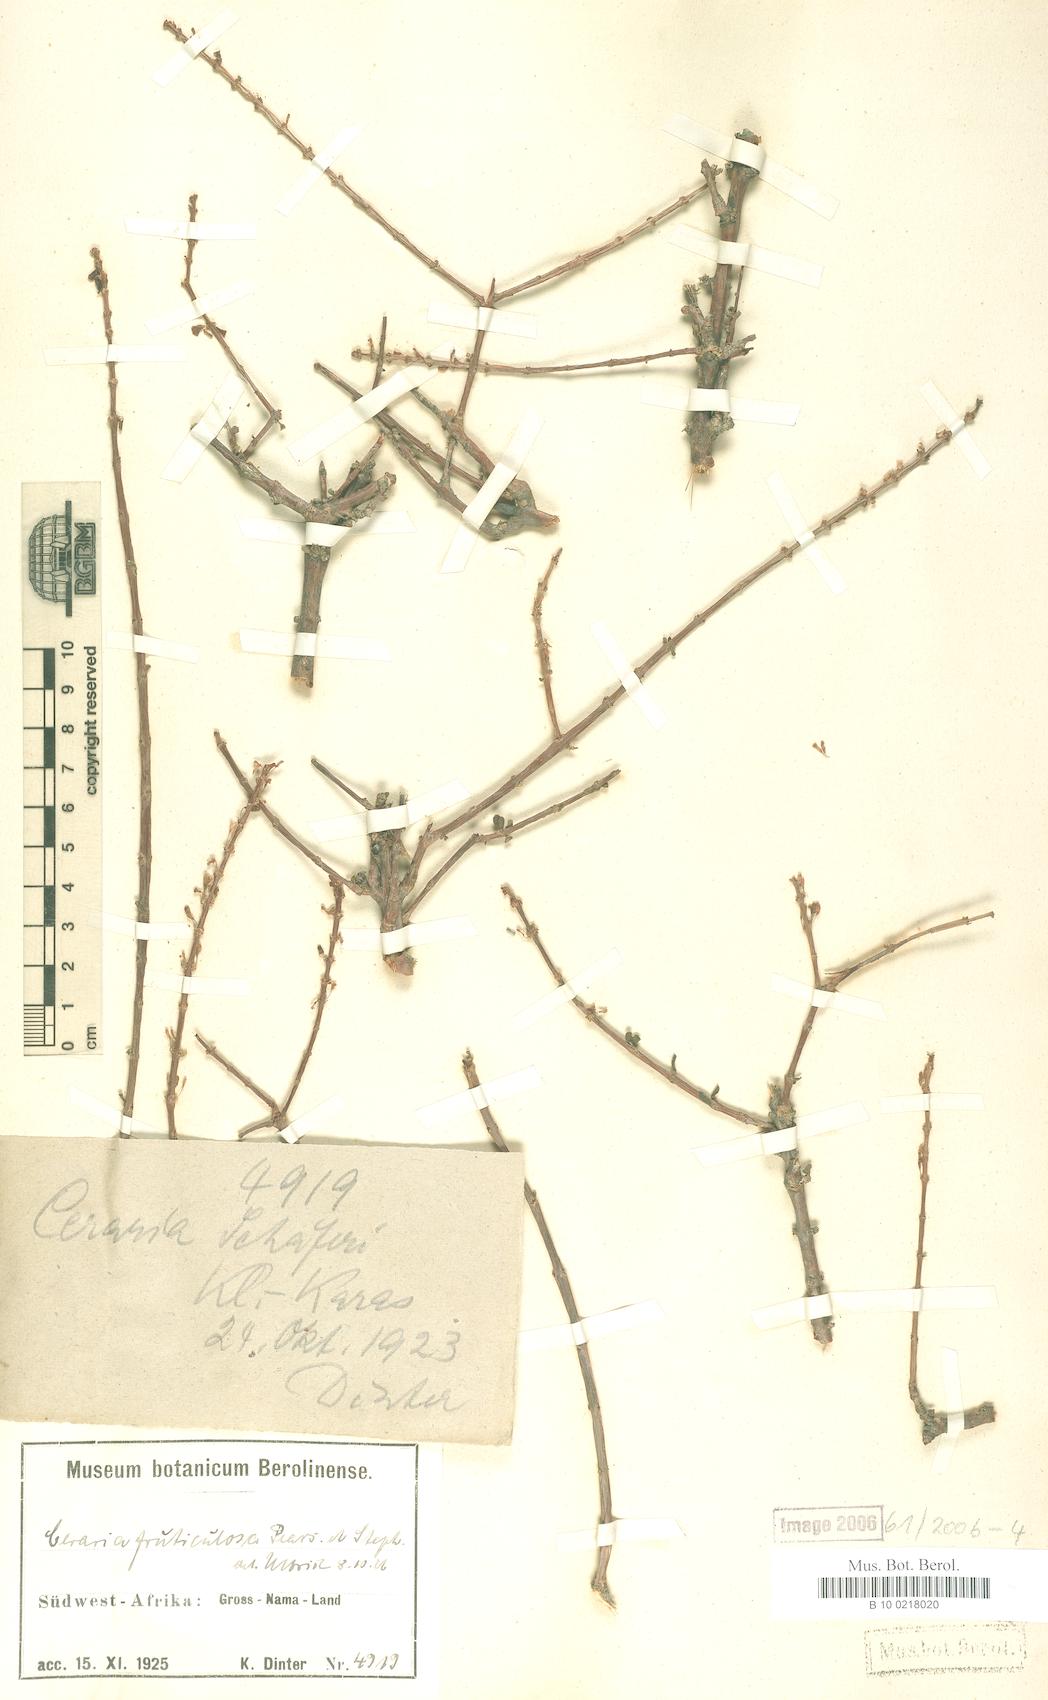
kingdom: Plantae
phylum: Tracheophyta
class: Magnoliopsida
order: Caryophyllales
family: Didiereaceae
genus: Portulacaria
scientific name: Portulacaria fruticulosa
